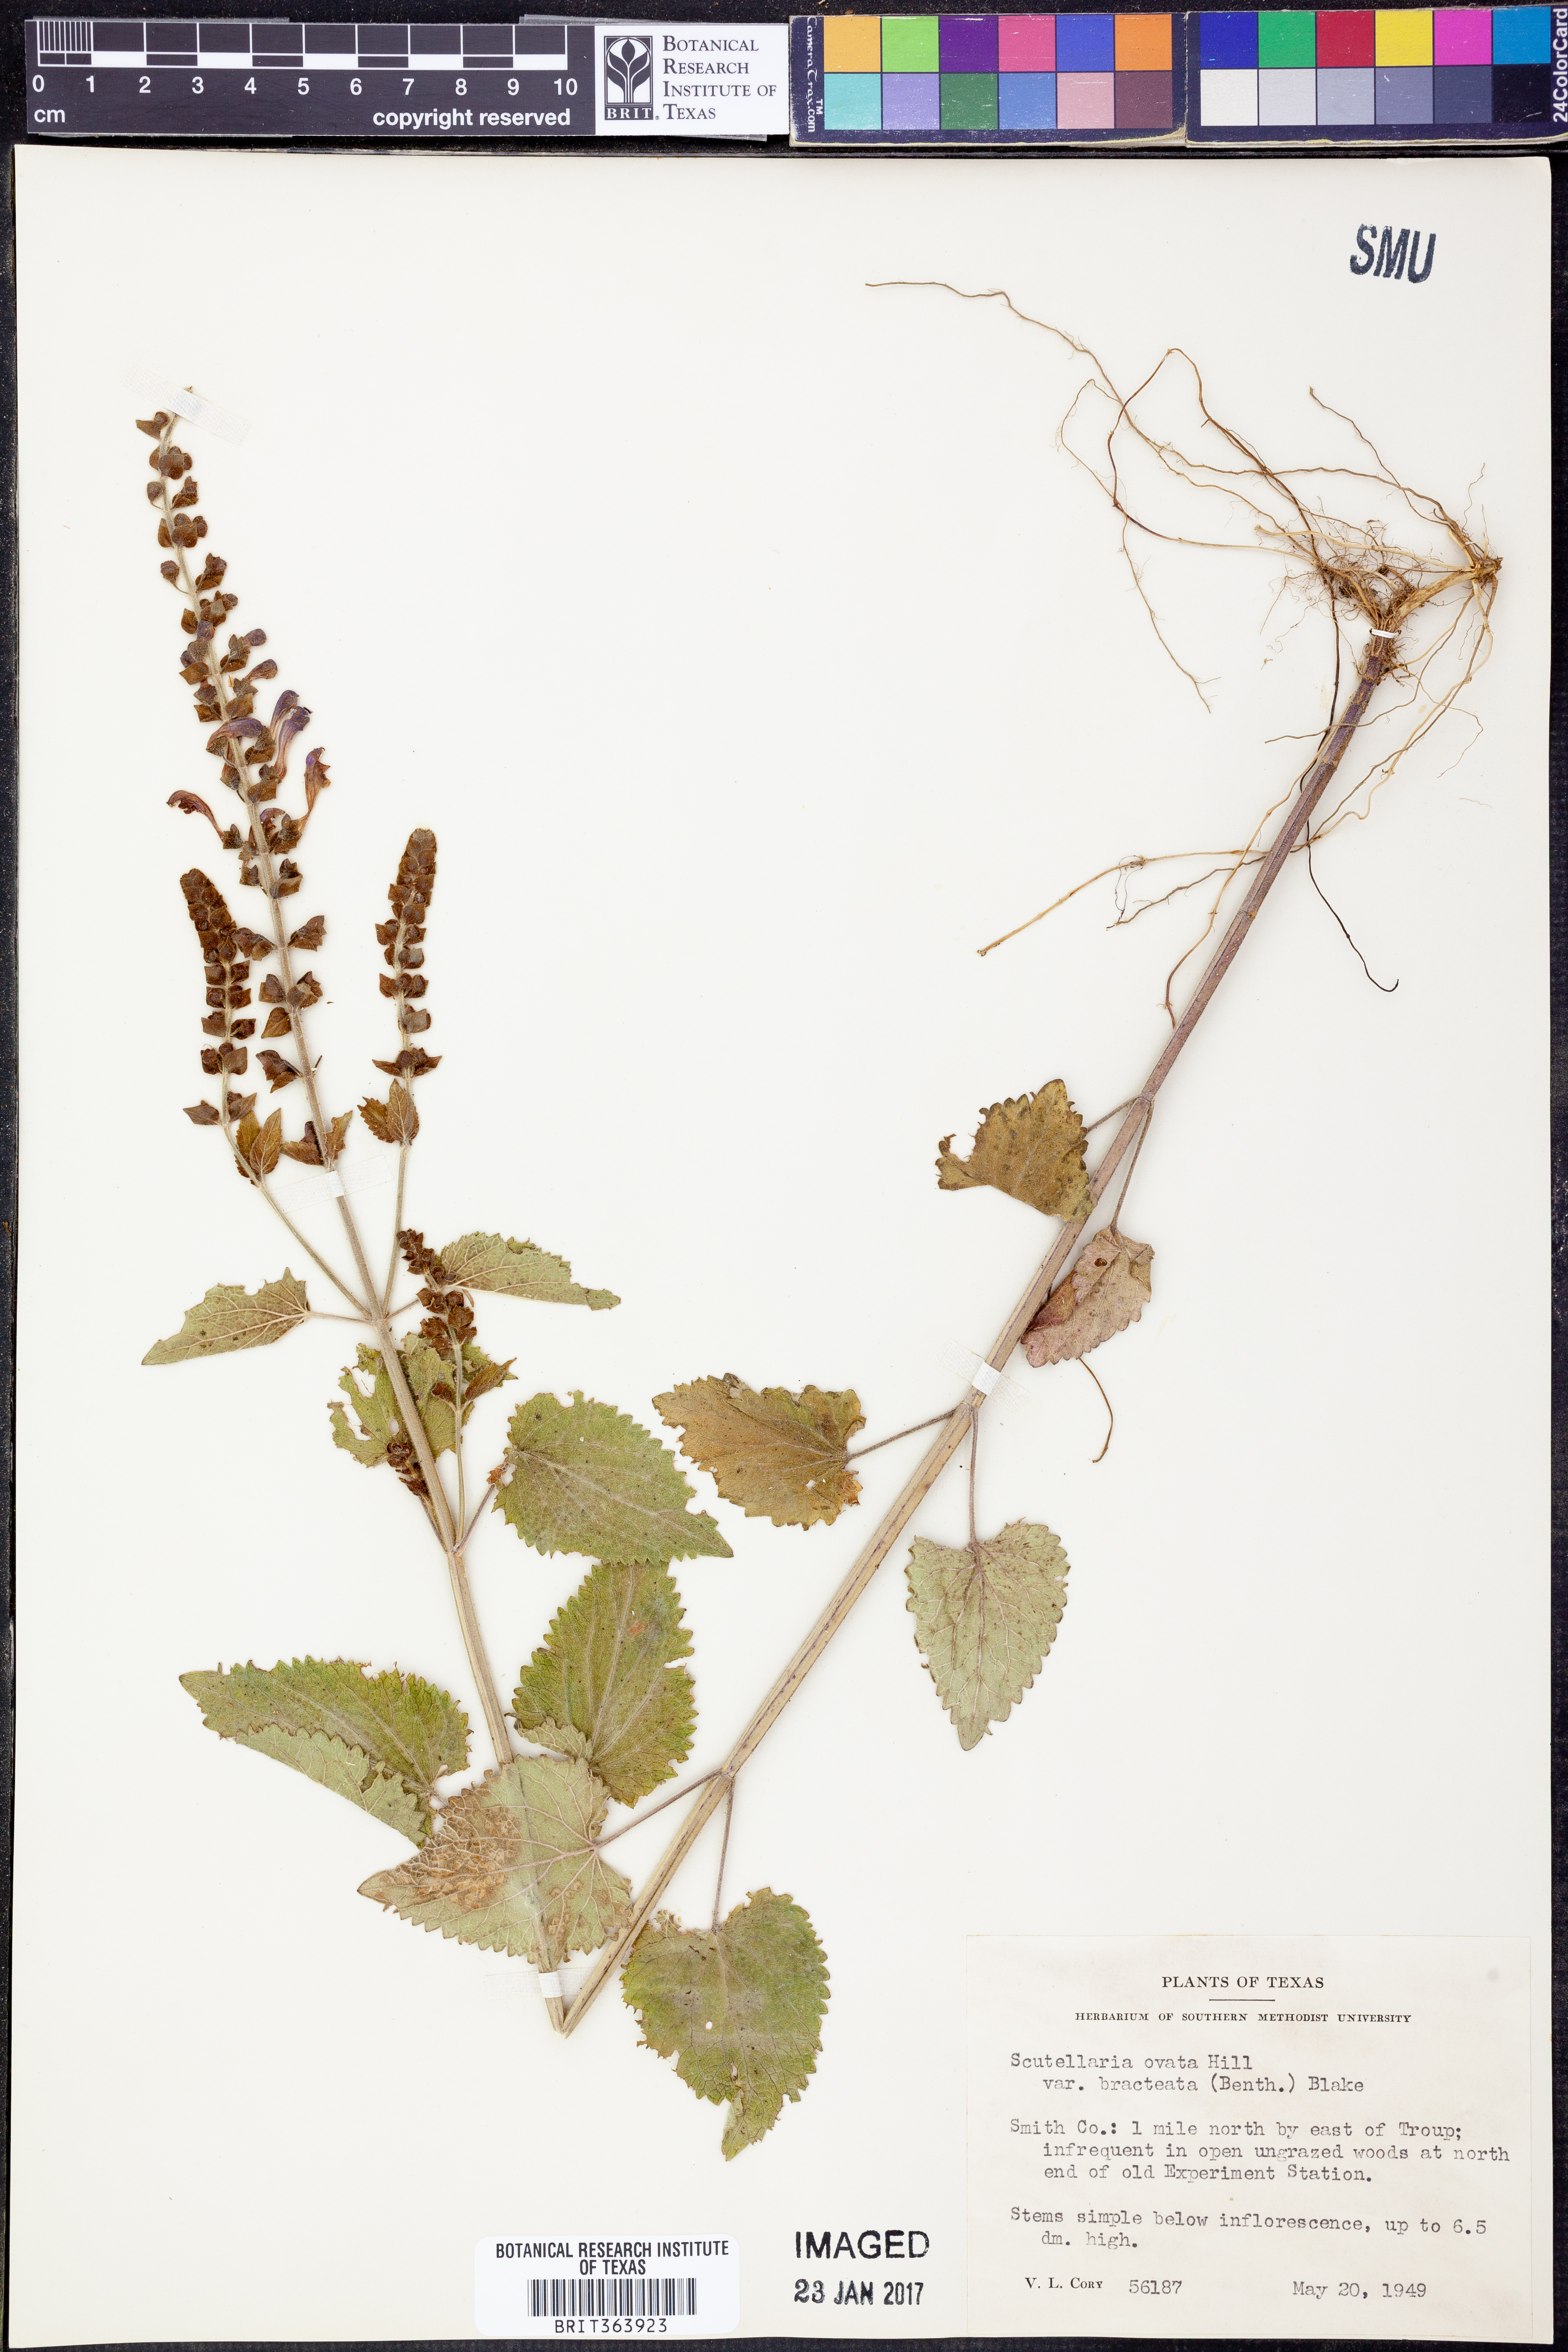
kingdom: Plantae
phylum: Tracheophyta
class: Magnoliopsida
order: Lamiales
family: Lamiaceae
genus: Scutellaria
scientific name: Scutellaria ovata
